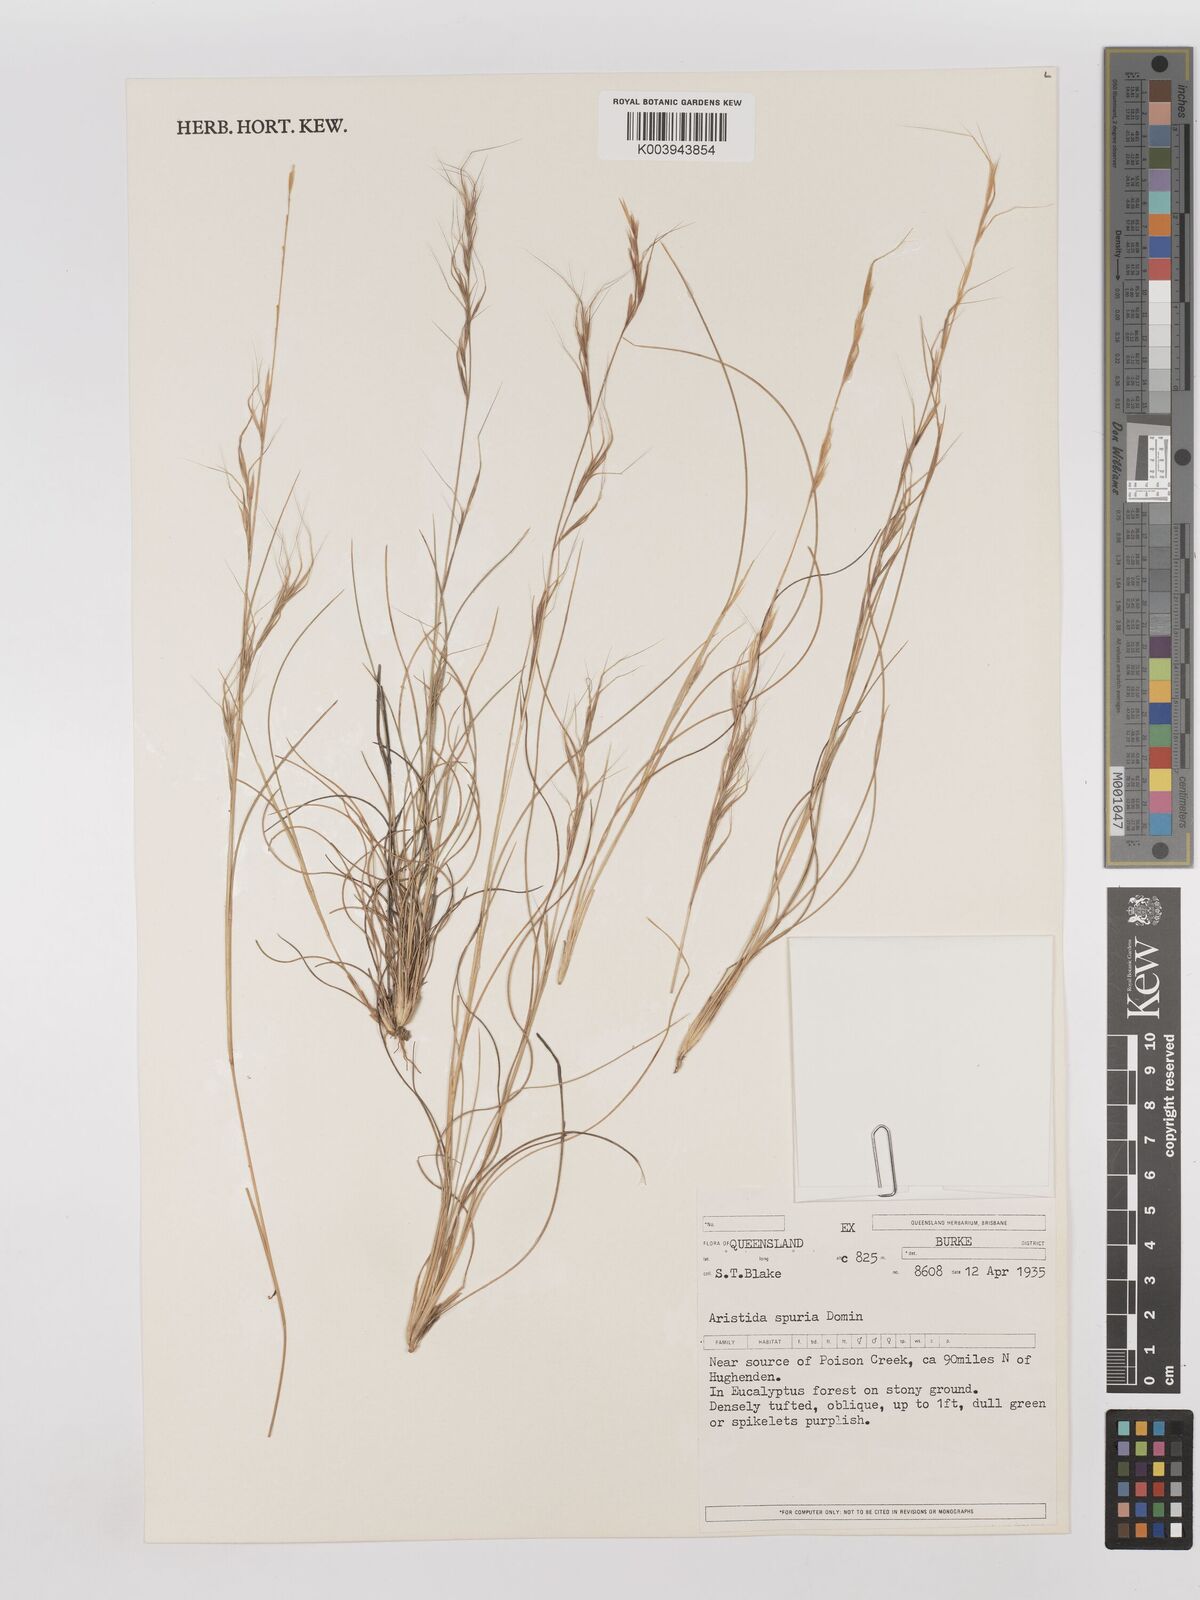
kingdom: Plantae
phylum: Tracheophyta
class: Liliopsida
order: Poales
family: Poaceae
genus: Aristida
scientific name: Aristida spuria
